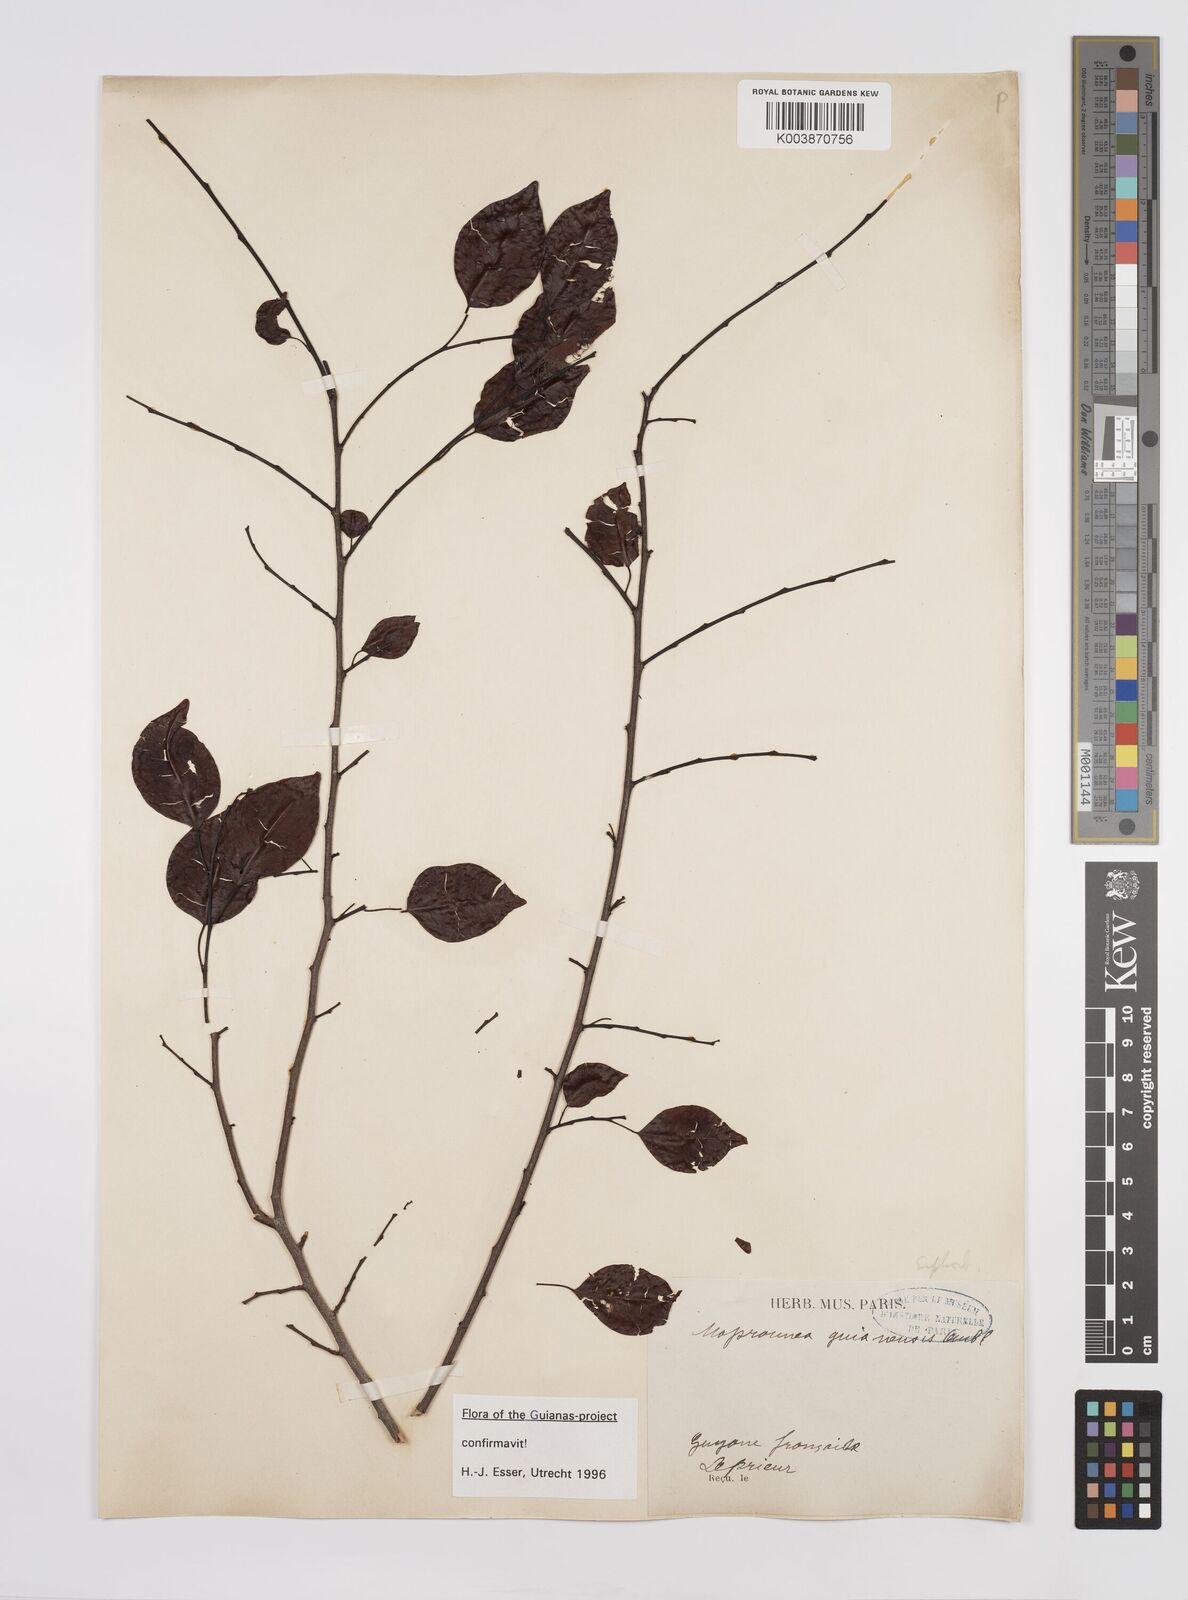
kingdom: Plantae
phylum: Tracheophyta
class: Magnoliopsida
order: Malpighiales
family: Euphorbiaceae
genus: Maprounea
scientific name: Maprounea guianensis
